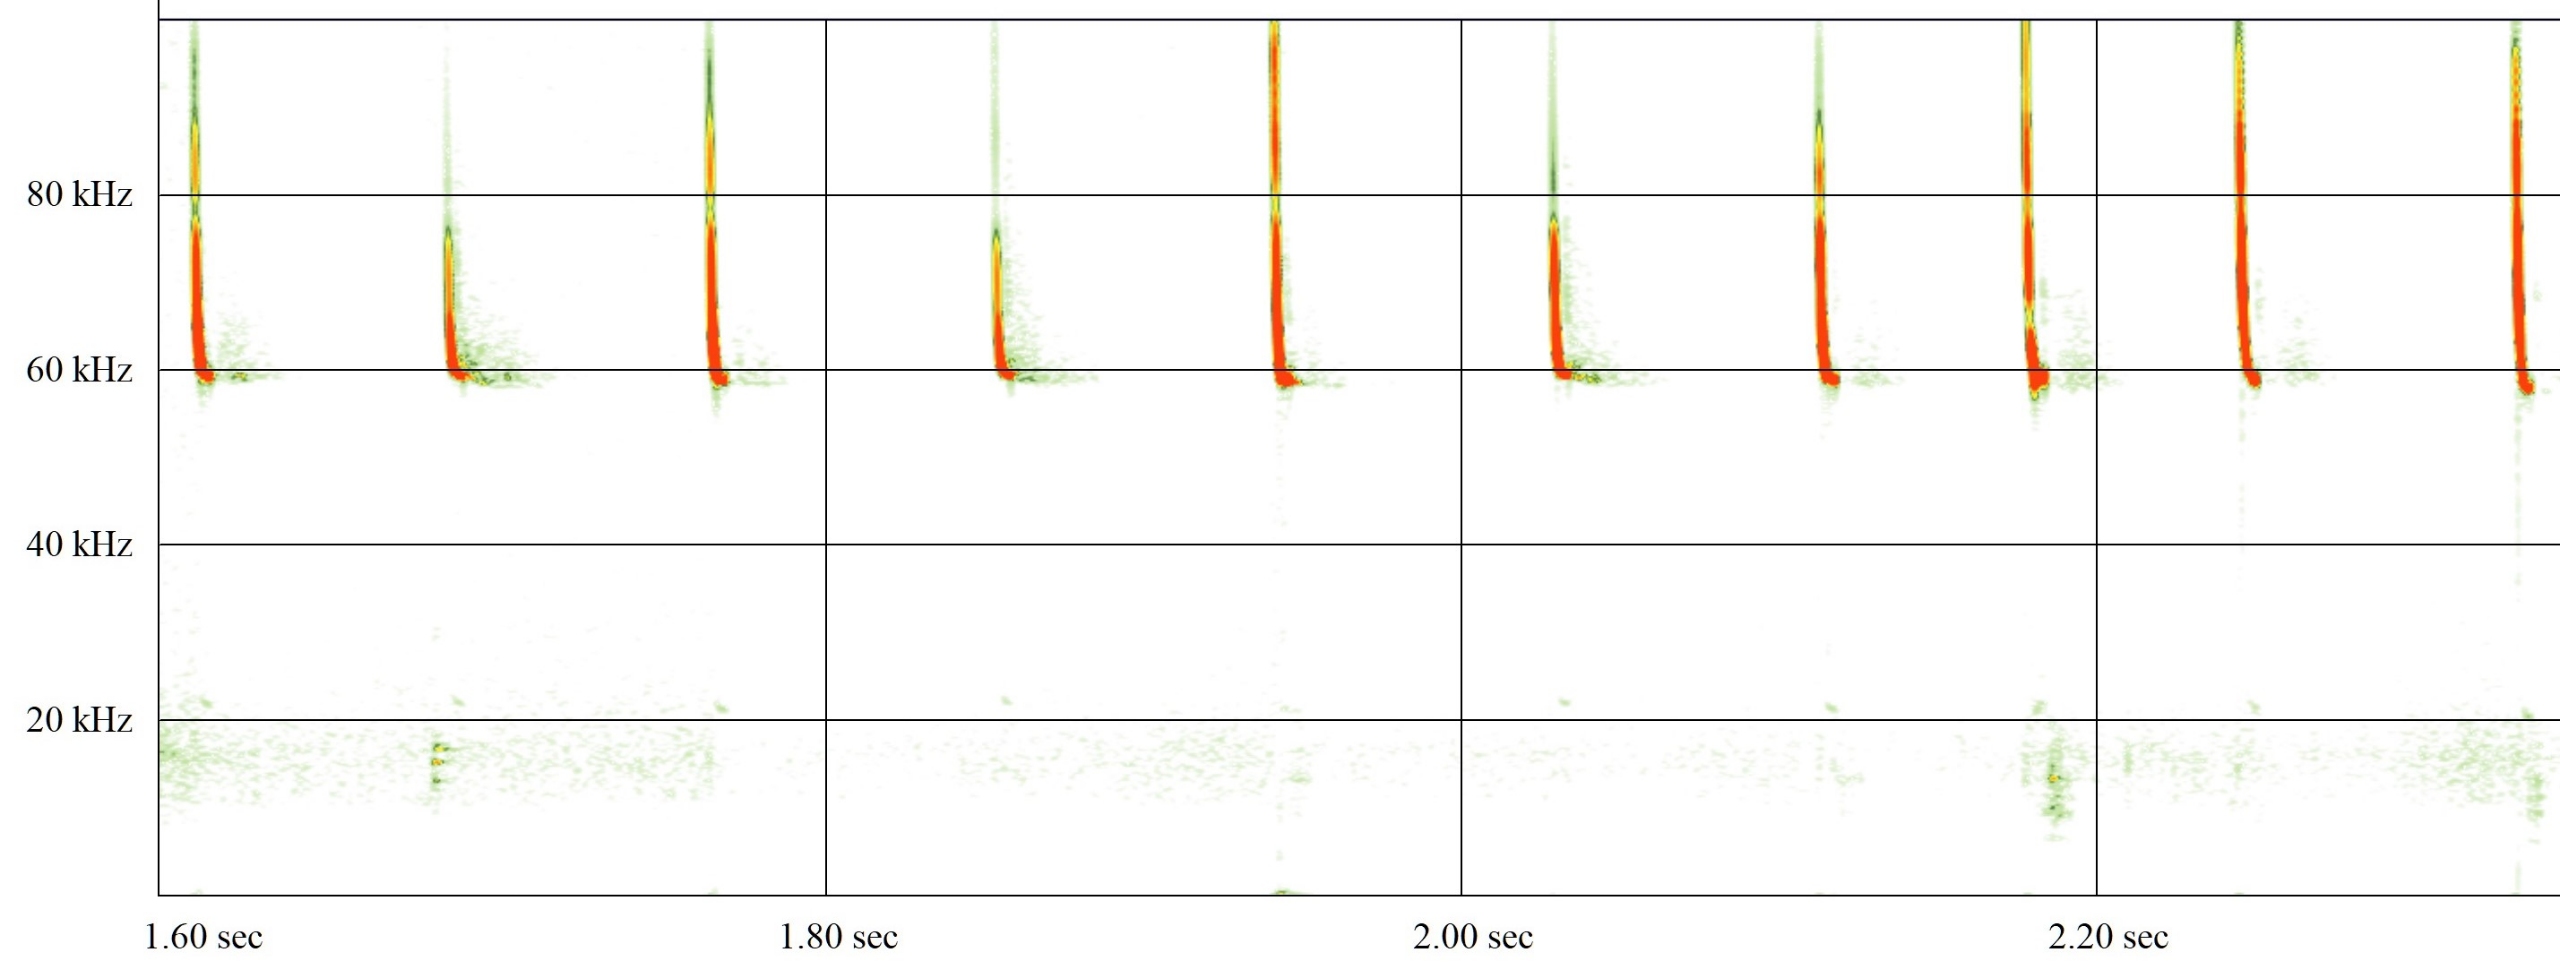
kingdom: Animalia
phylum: Chordata
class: Mammalia
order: Chiroptera
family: Vespertilionidae
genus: Pipistrellus
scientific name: Pipistrellus pygmaeus
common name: Dværgflagermus
